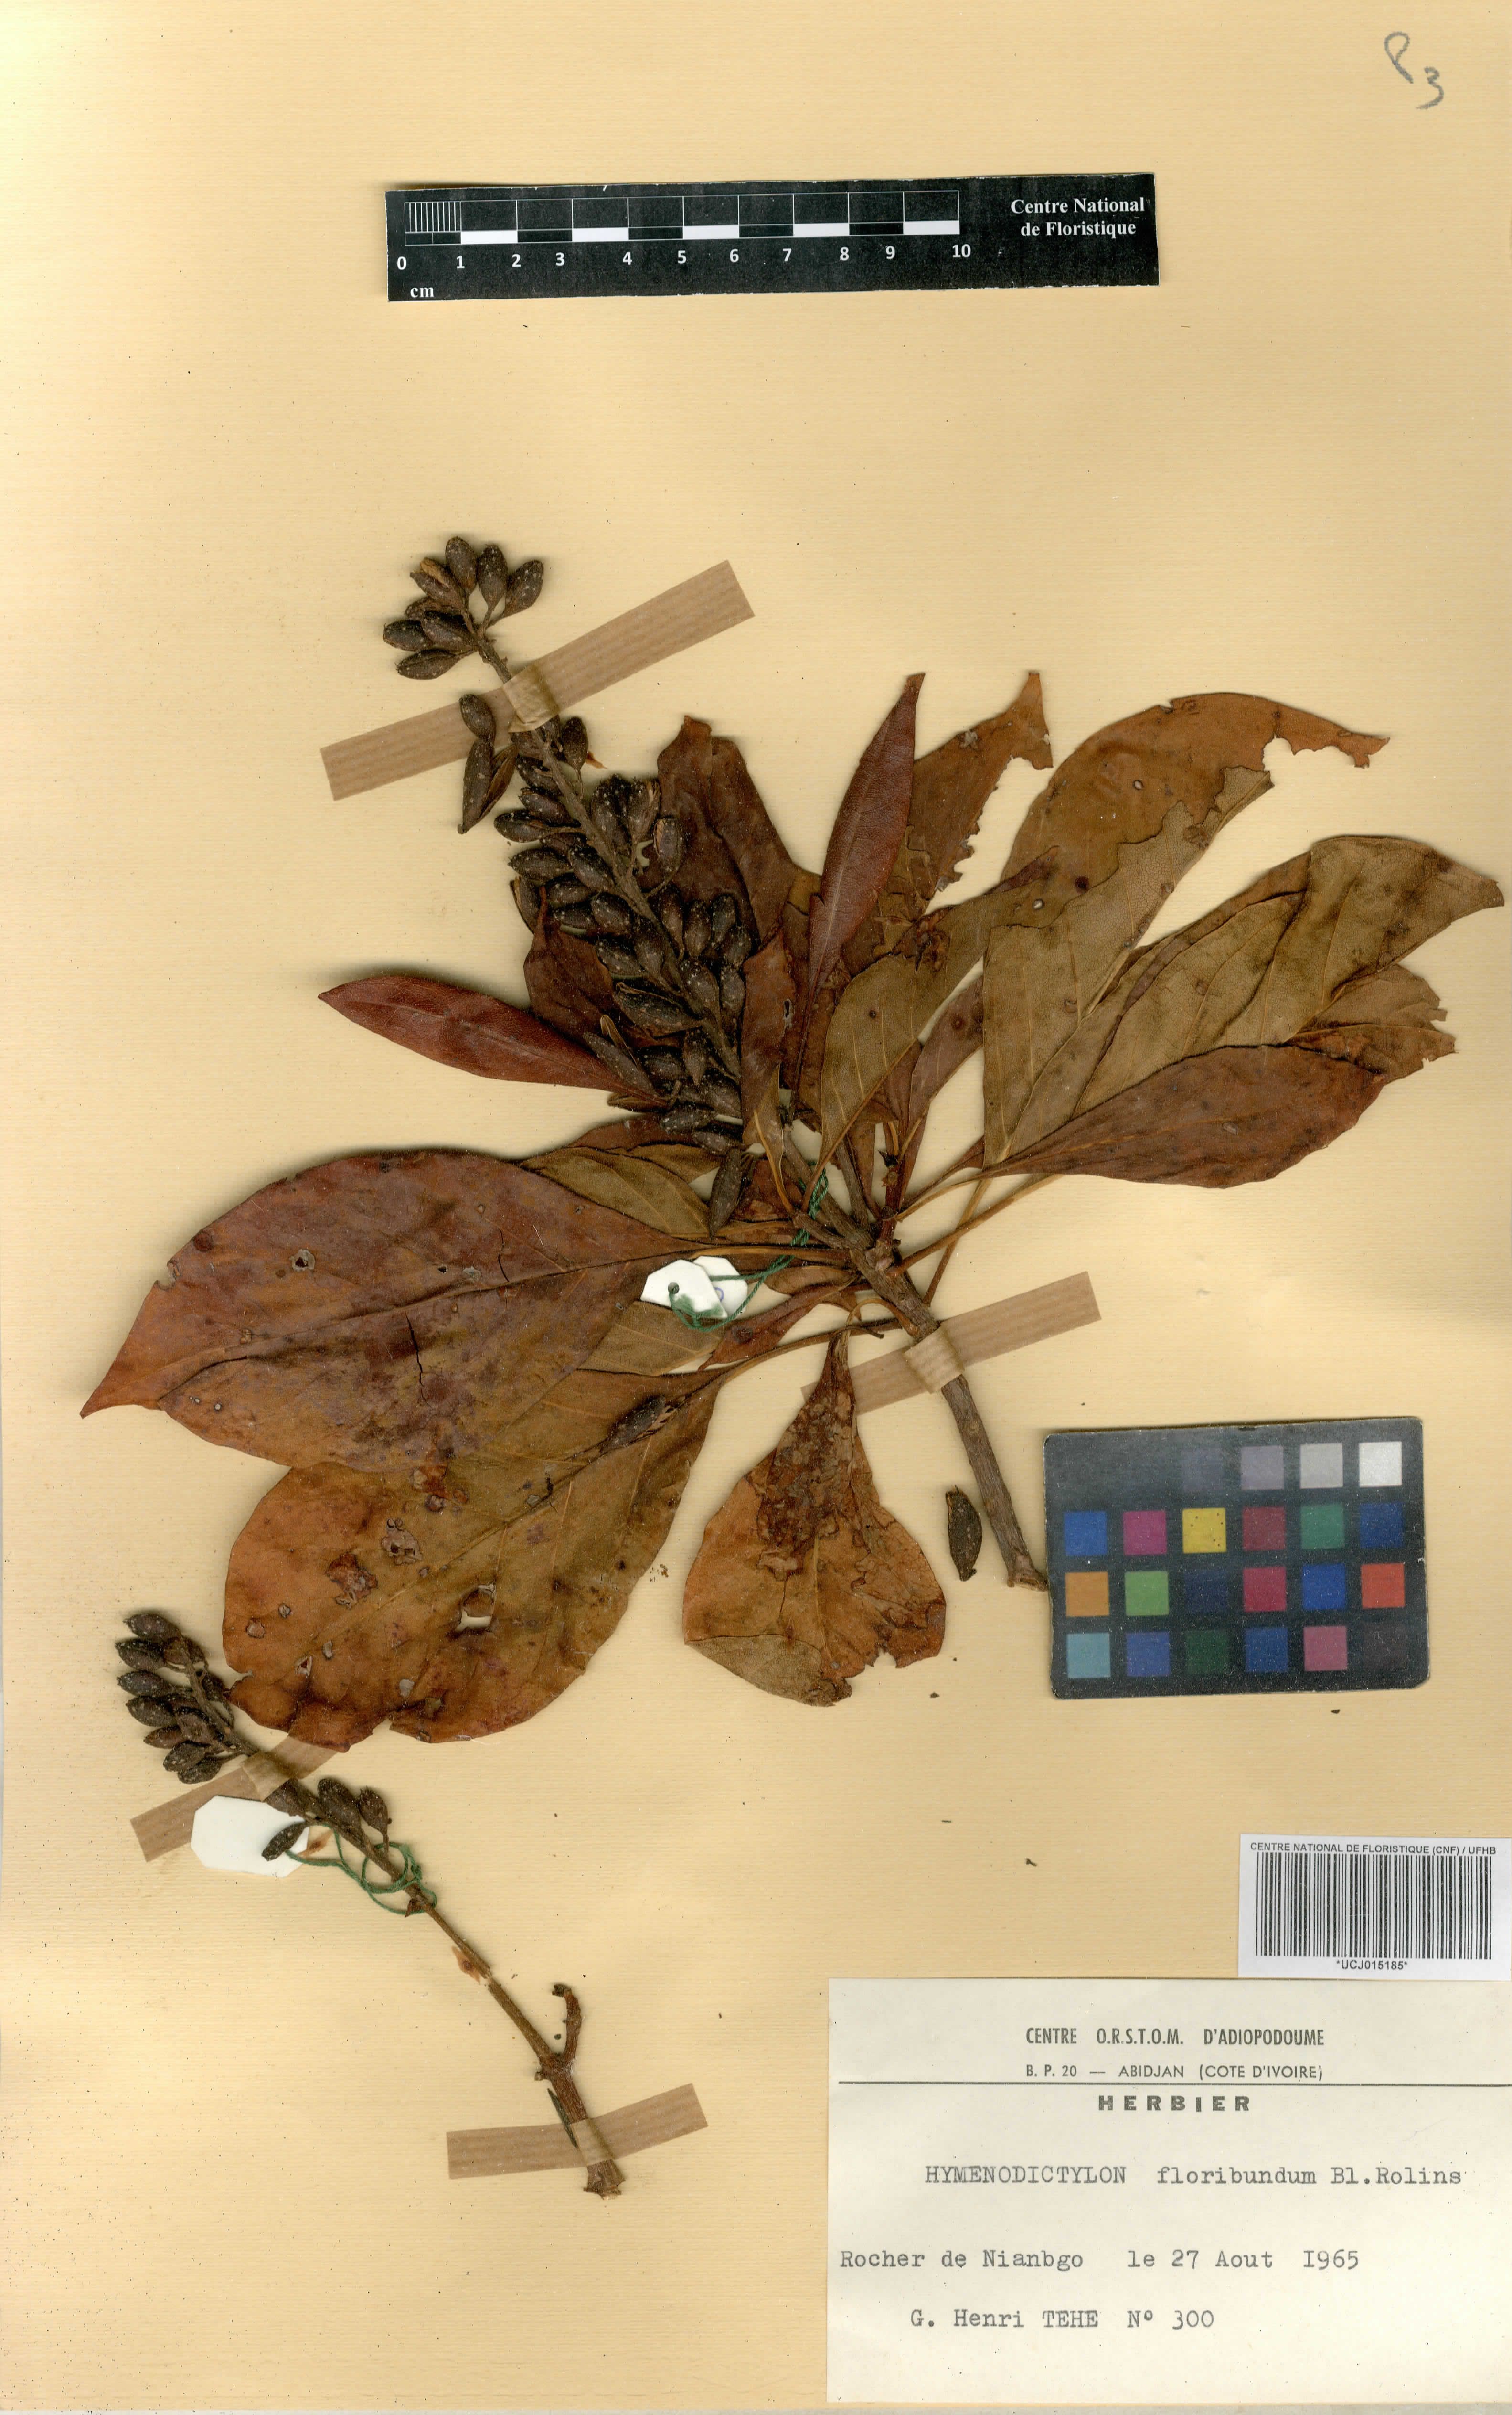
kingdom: Plantae
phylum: Tracheophyta
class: Magnoliopsida
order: Gentianales
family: Rubiaceae
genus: Hymenodictyon
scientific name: Hymenodictyon floribundum
